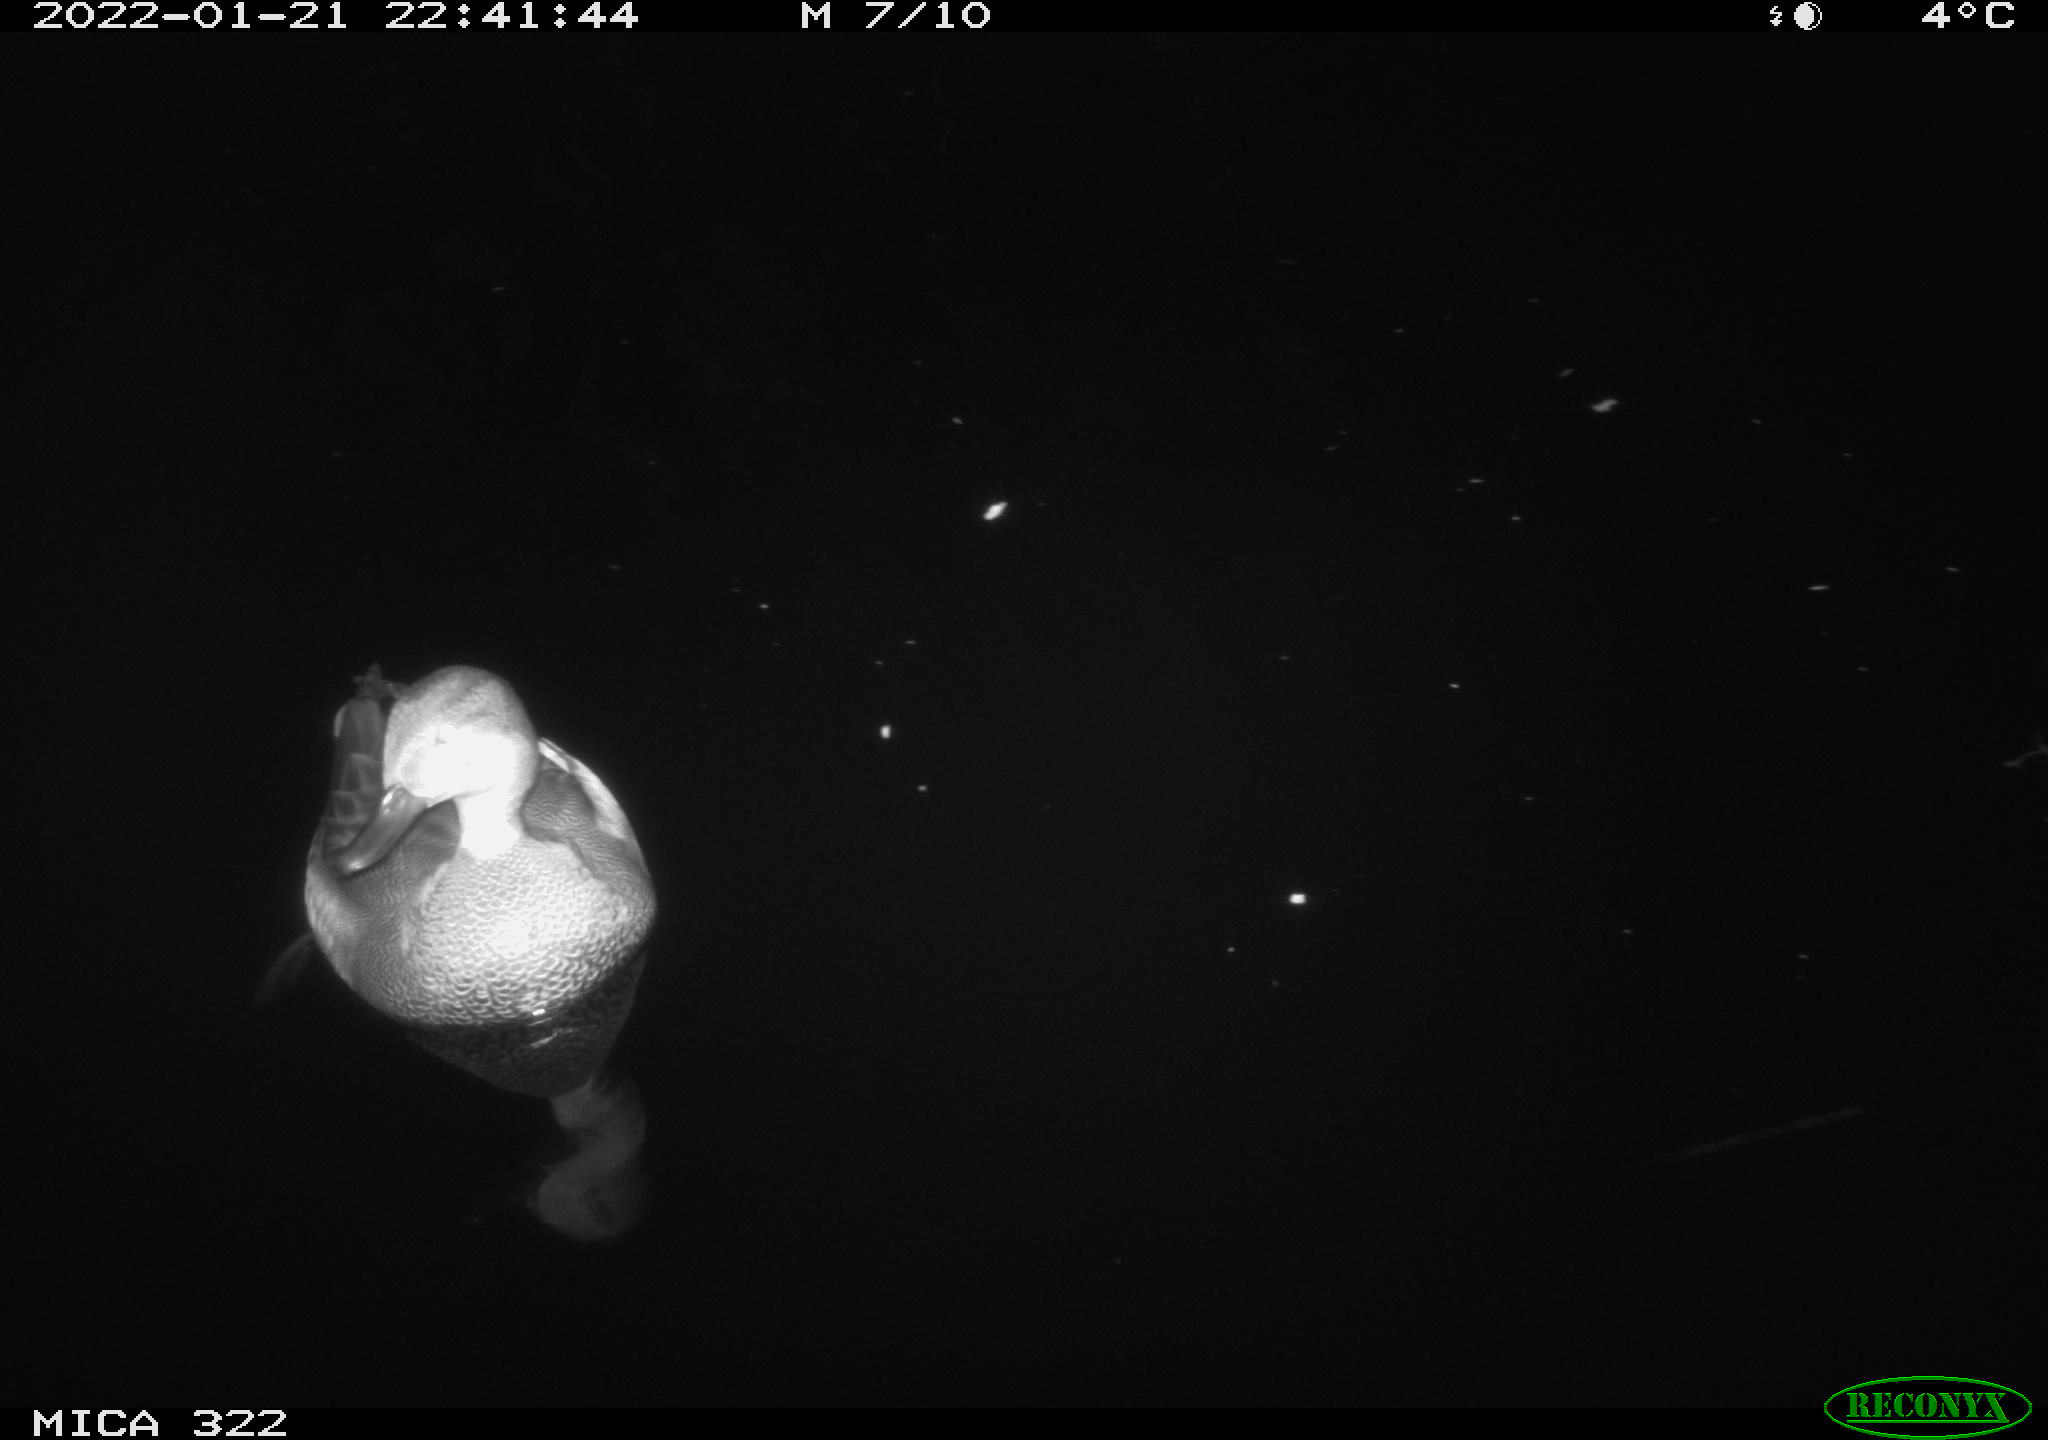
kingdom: Animalia
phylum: Chordata
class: Aves
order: Anseriformes
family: Anatidae
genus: Anas
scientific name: Anas
